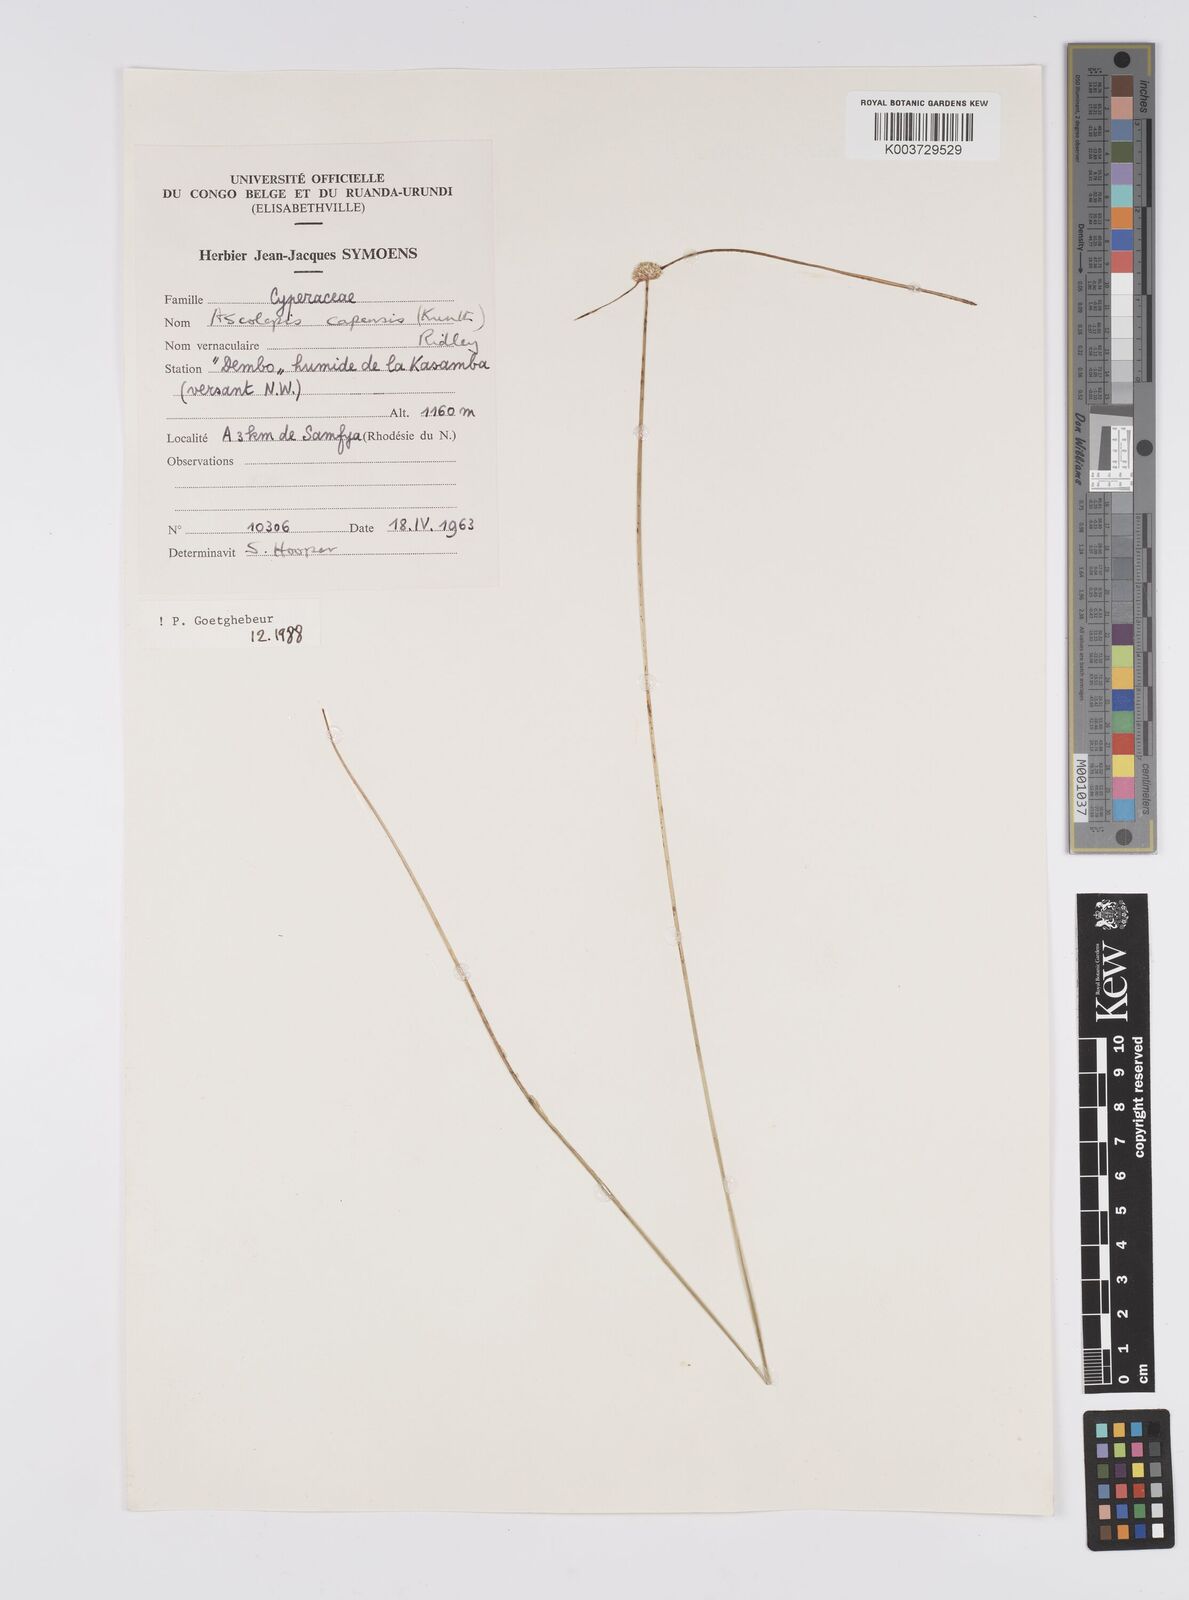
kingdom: Plantae
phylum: Tracheophyta
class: Liliopsida
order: Poales
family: Cyperaceae
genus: Cyperus
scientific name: Cyperus
